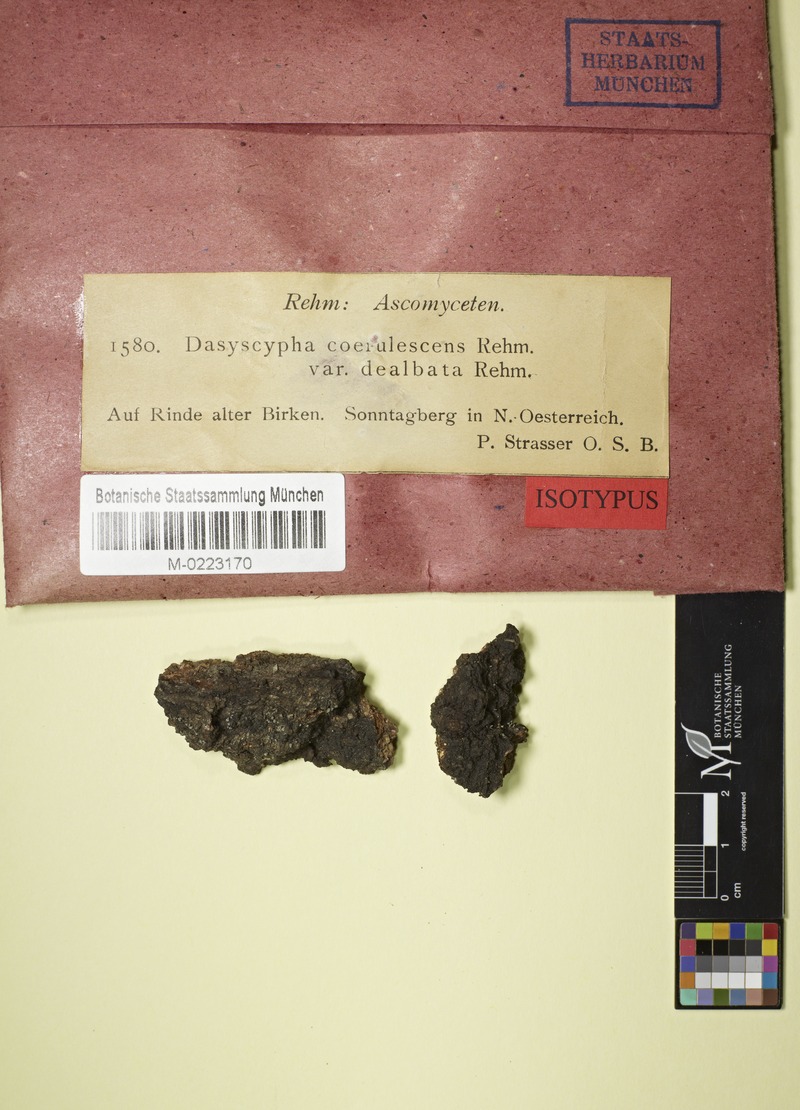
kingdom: Fungi
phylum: Ascomycota
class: Leotiomycetes
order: Helotiales
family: Lachnaceae
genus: Trichopeziza
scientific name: Trichopeziza caerulescens
